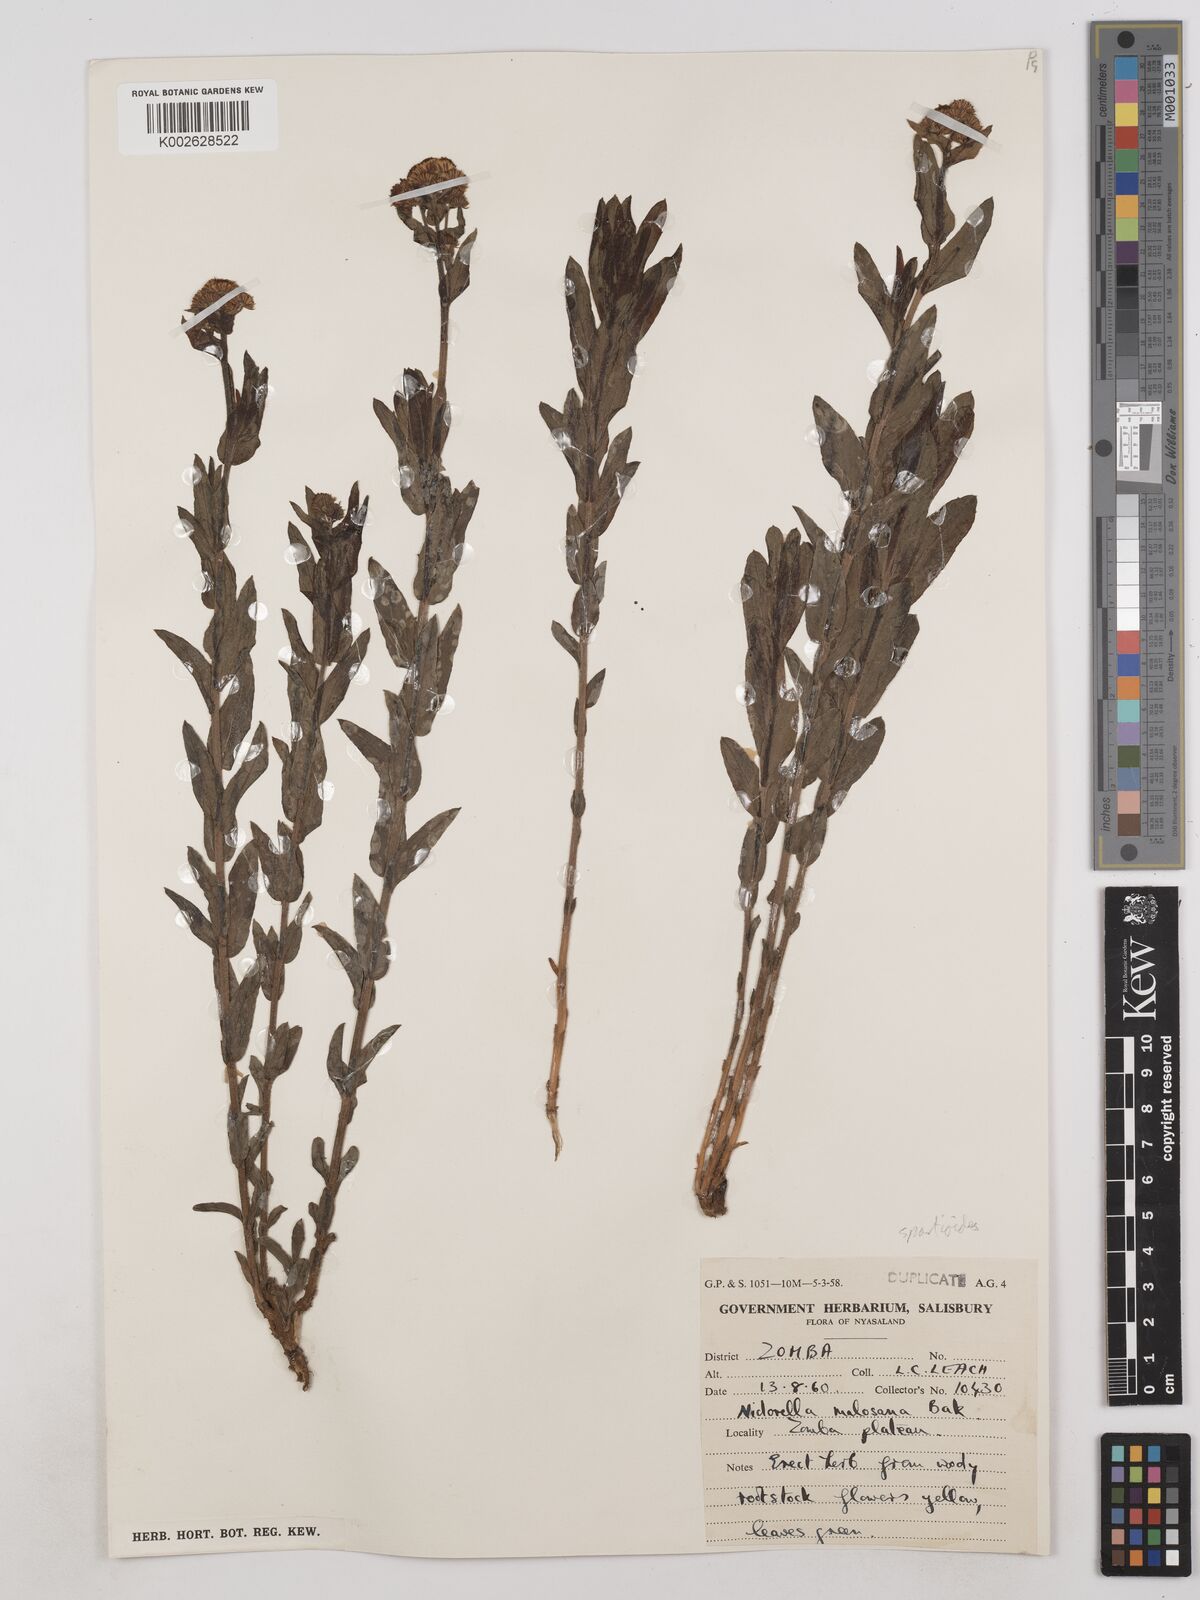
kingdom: Plantae
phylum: Tracheophyta
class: Magnoliopsida
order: Asterales
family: Asteraceae
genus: Nidorella
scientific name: Nidorella spartioides
